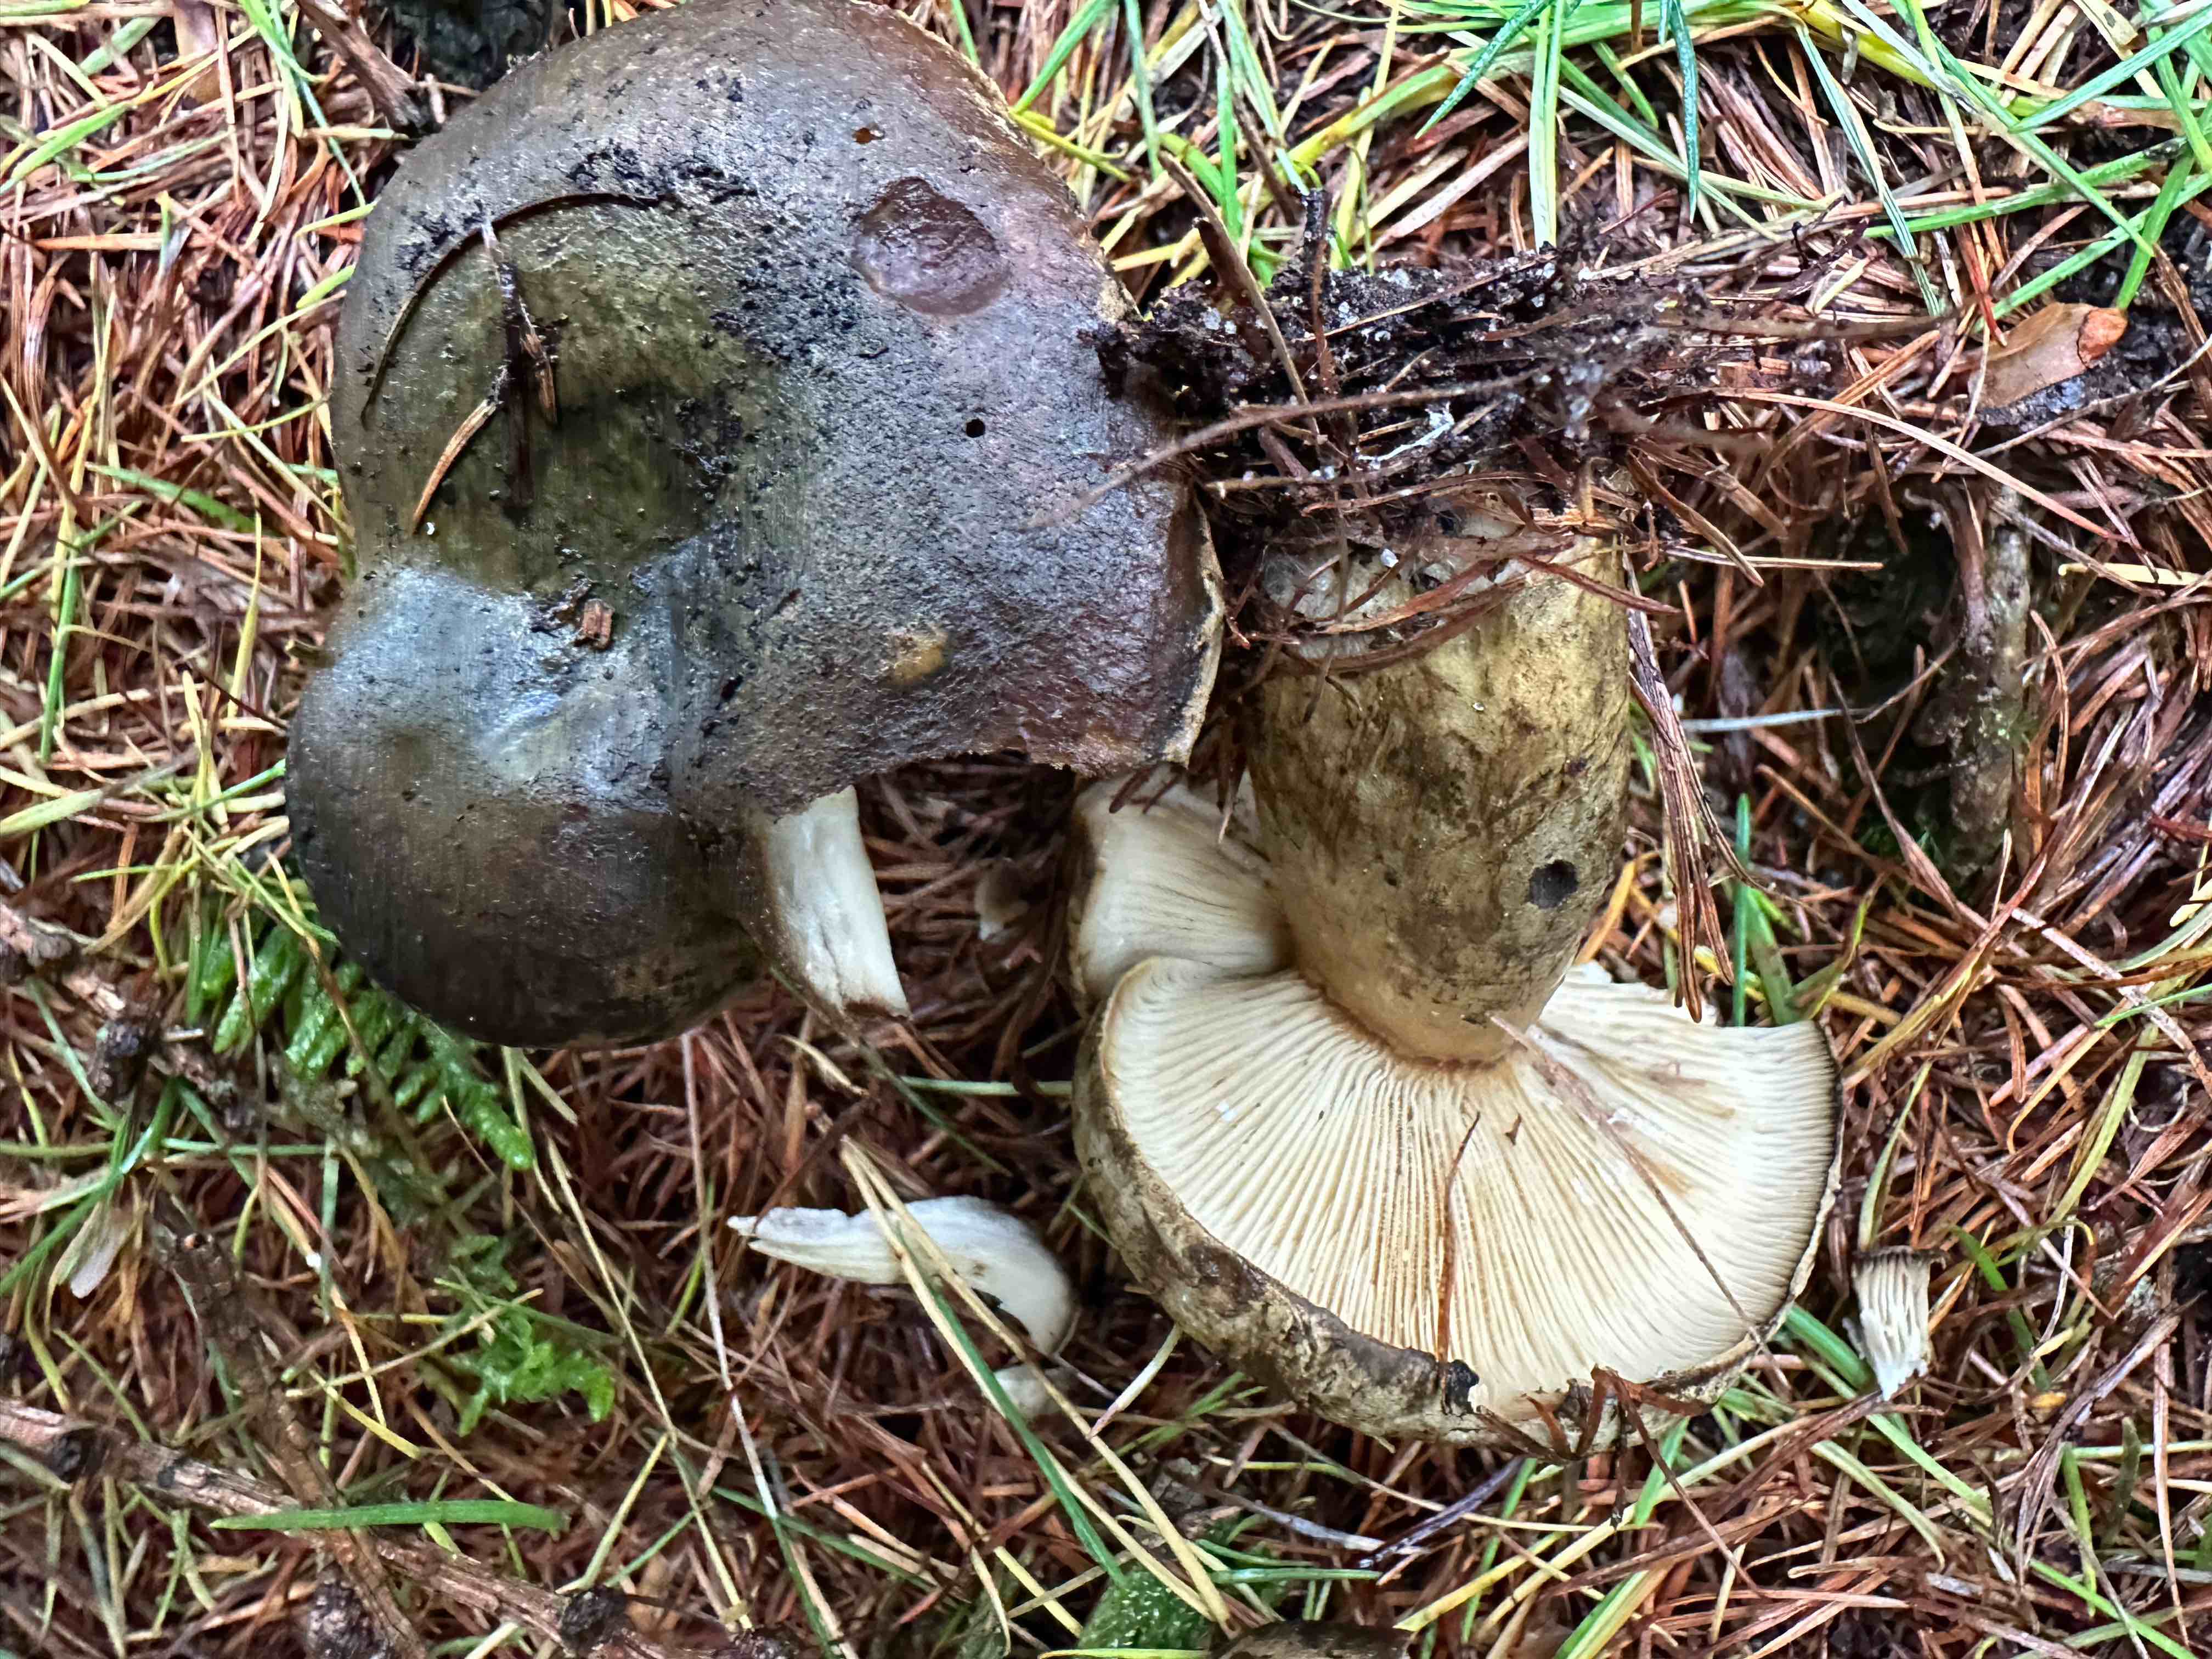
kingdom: Fungi
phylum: Basidiomycota
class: Agaricomycetes
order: Russulales
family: Russulaceae
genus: Lactarius
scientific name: Lactarius necator
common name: manddraber-mælkehat
